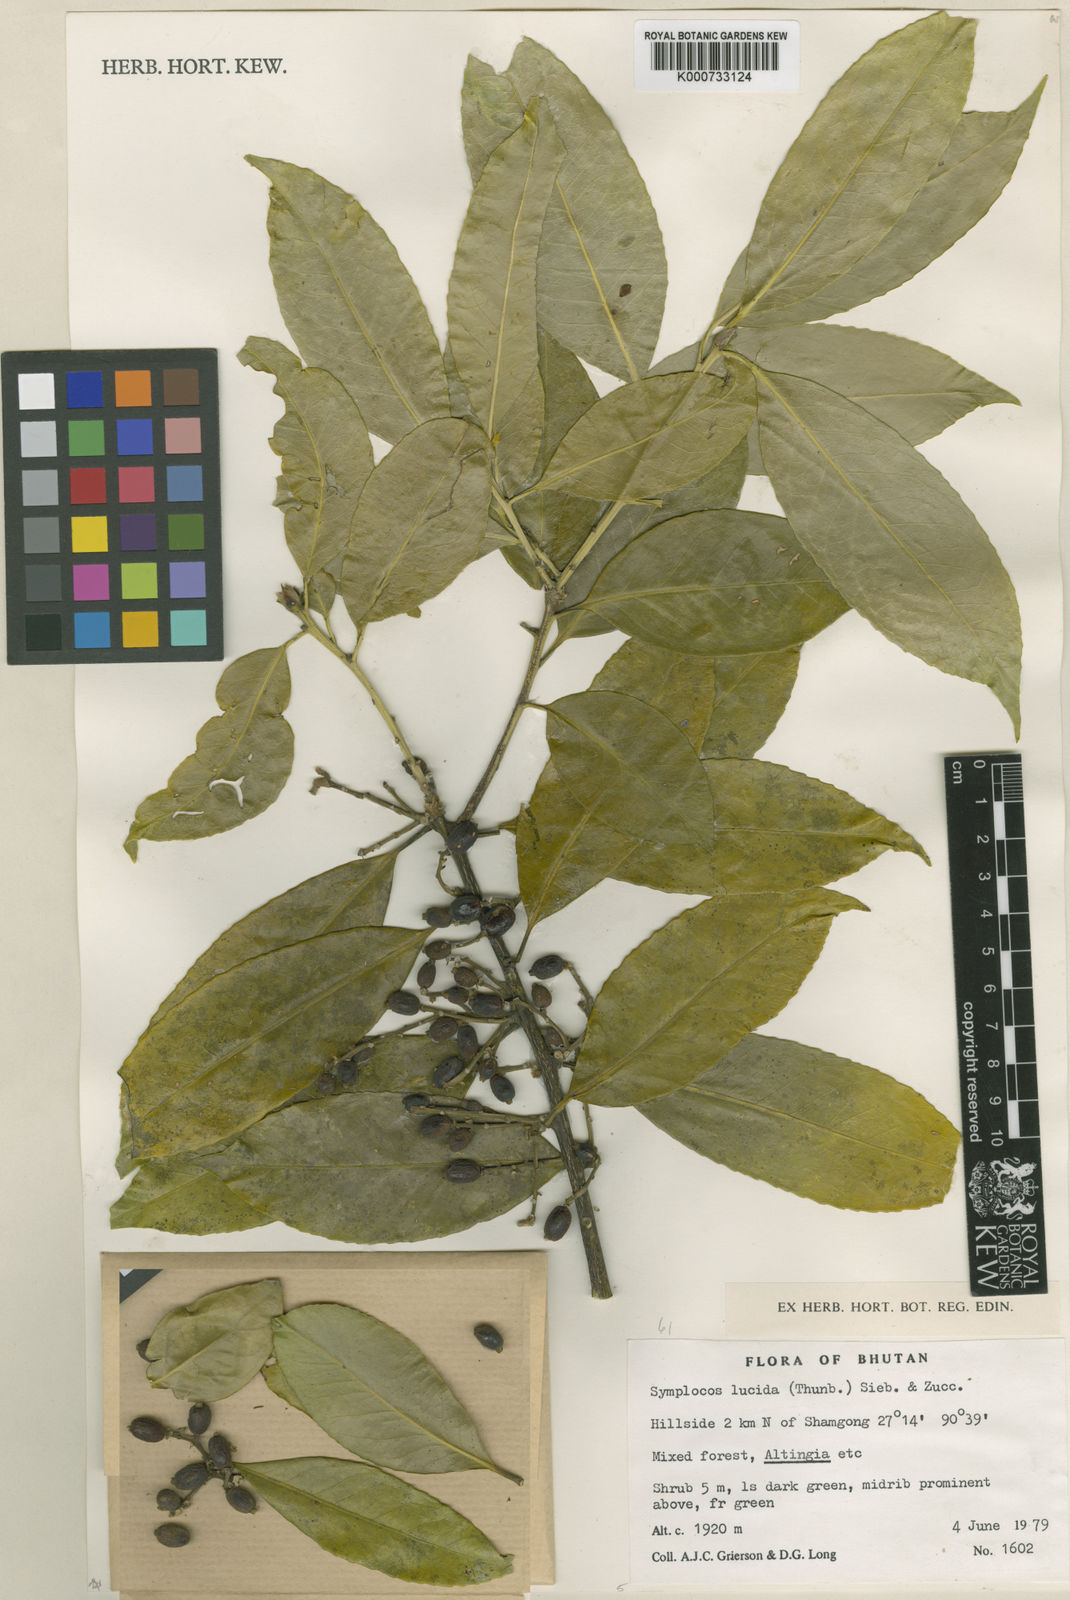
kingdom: Plantae
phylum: Tracheophyta
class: Magnoliopsida
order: Ericales
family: Symplocaceae
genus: Symplocos
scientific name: Symplocos
